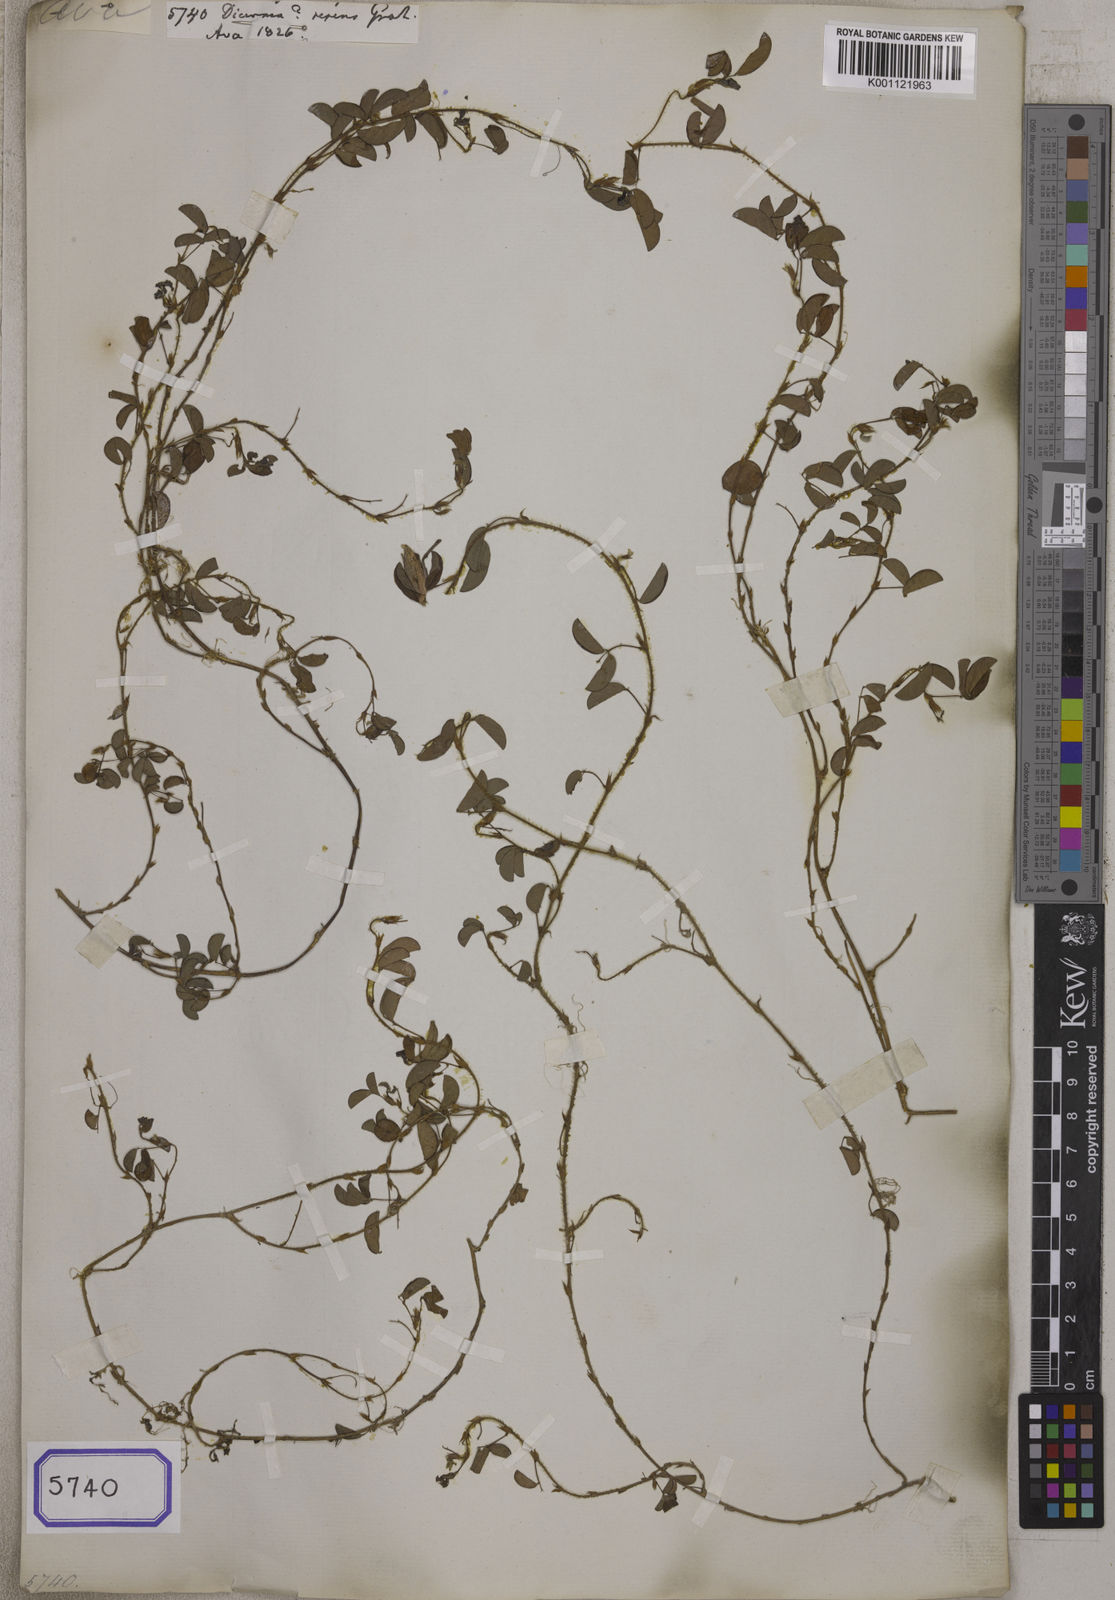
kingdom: Plantae
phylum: Tracheophyta
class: Magnoliopsida
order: Fabales
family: Fabaceae
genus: Aphyllodium
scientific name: Aphyllodium
